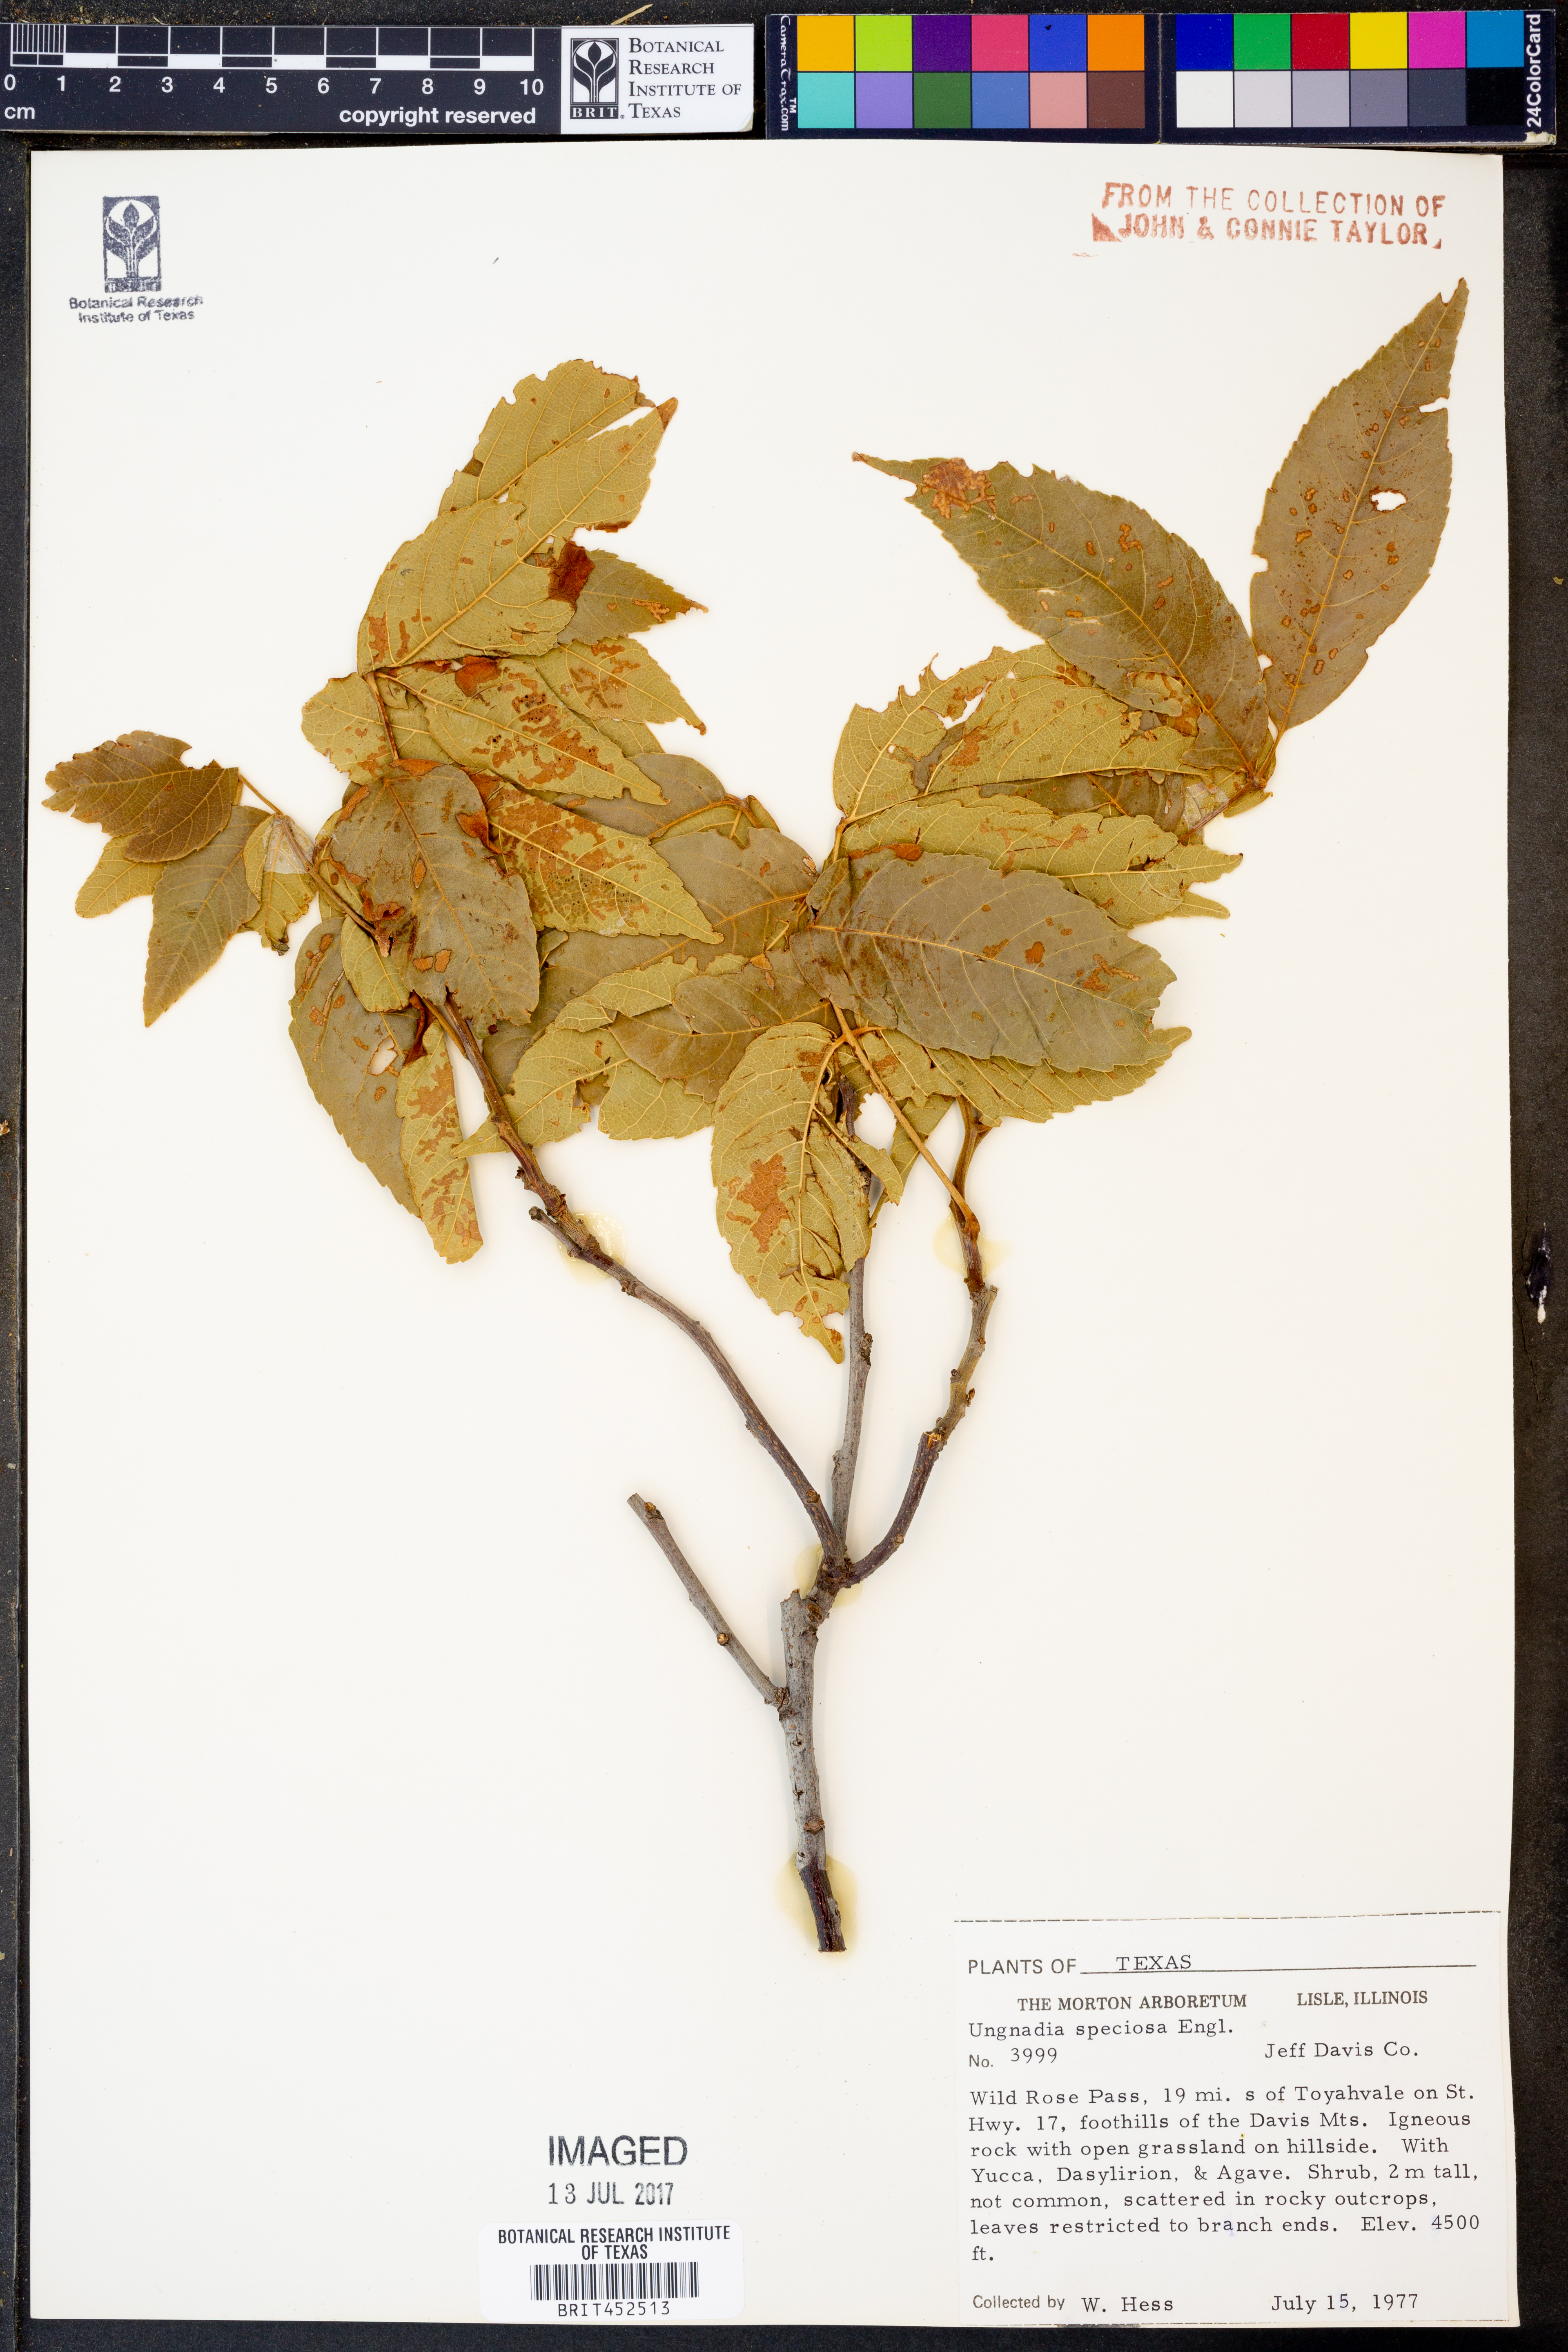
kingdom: Plantae
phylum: Tracheophyta
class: Magnoliopsida
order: Sapindales
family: Sapindaceae
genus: Ungnadia
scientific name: Ungnadia speciosa
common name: Texas-buckeye
